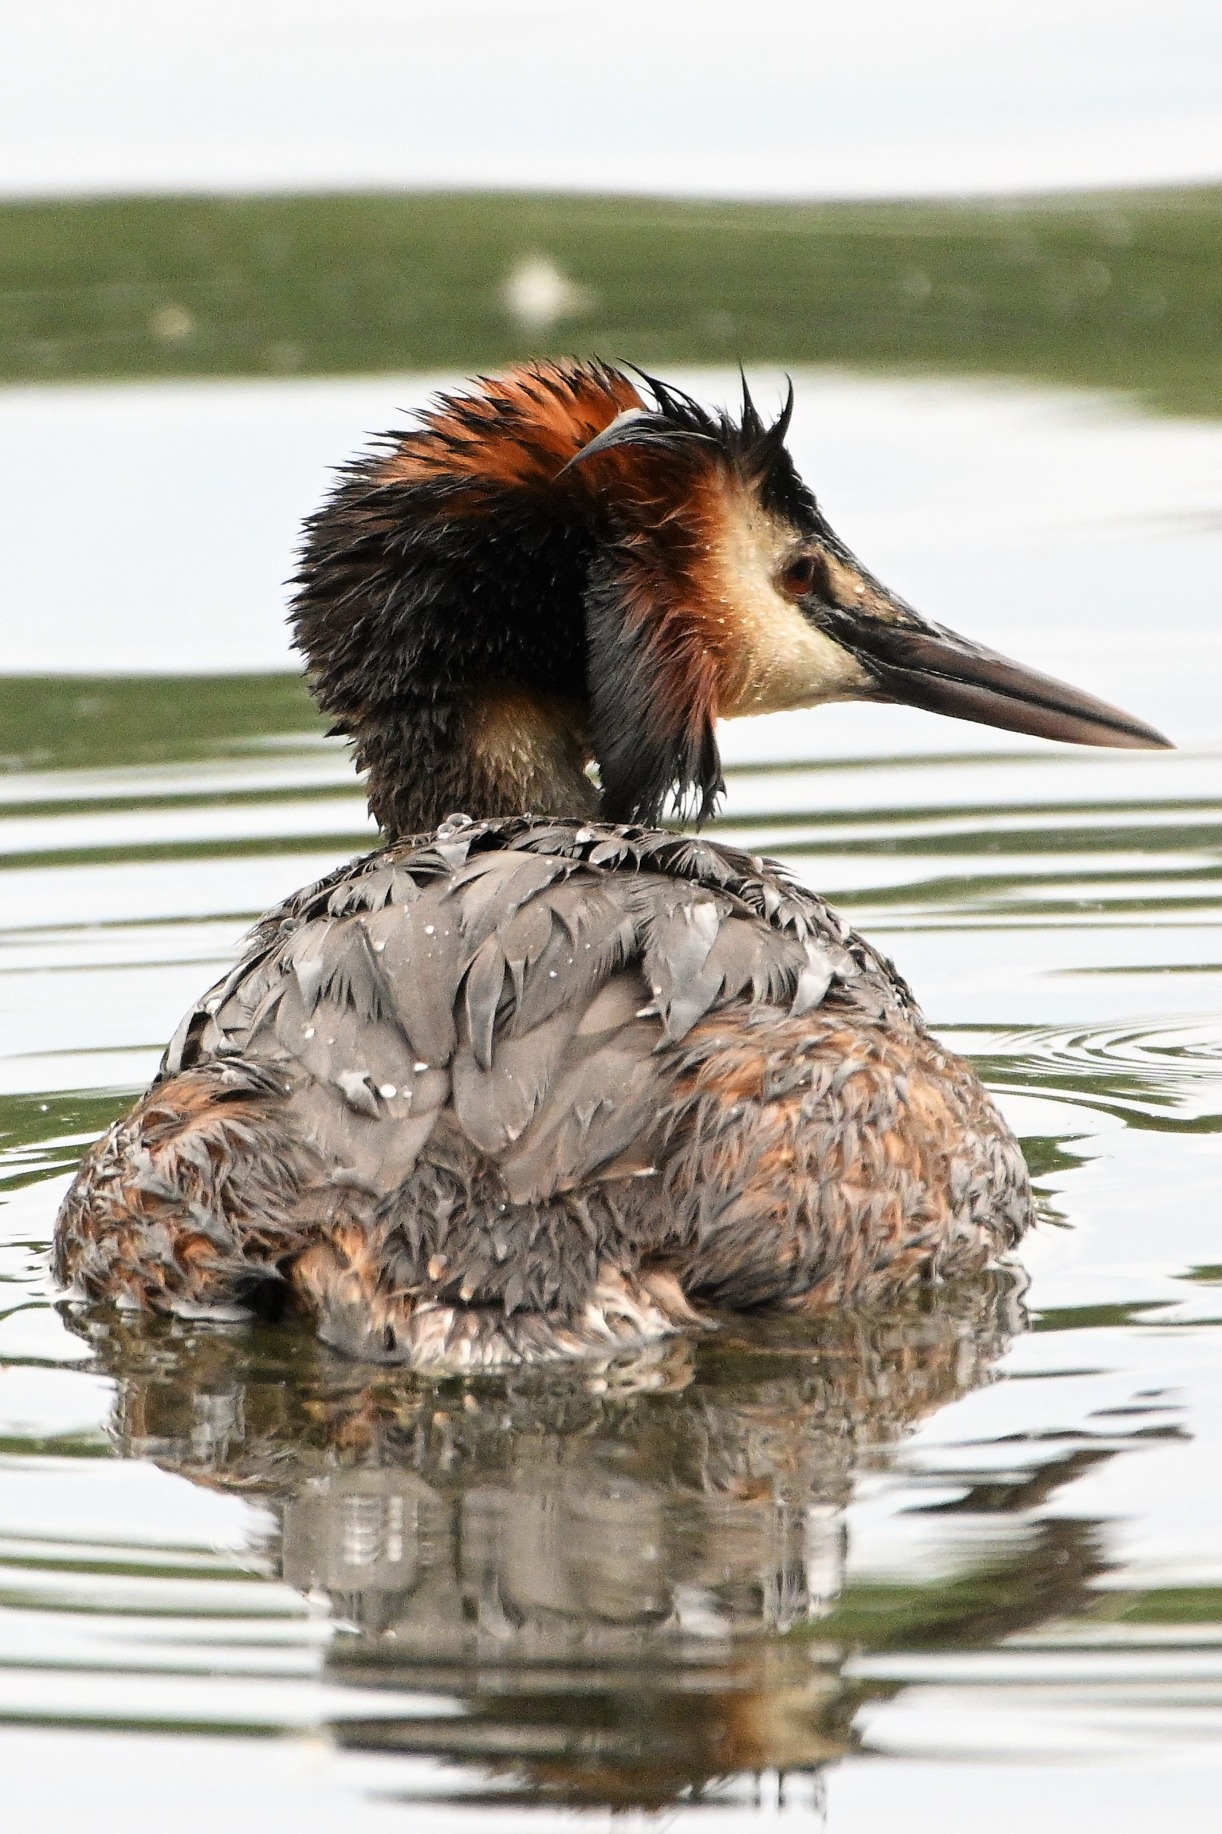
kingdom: Animalia
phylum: Chordata
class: Aves
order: Podicipediformes
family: Podicipedidae
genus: Podiceps
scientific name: Podiceps cristatus
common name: Toppet lappedykker
